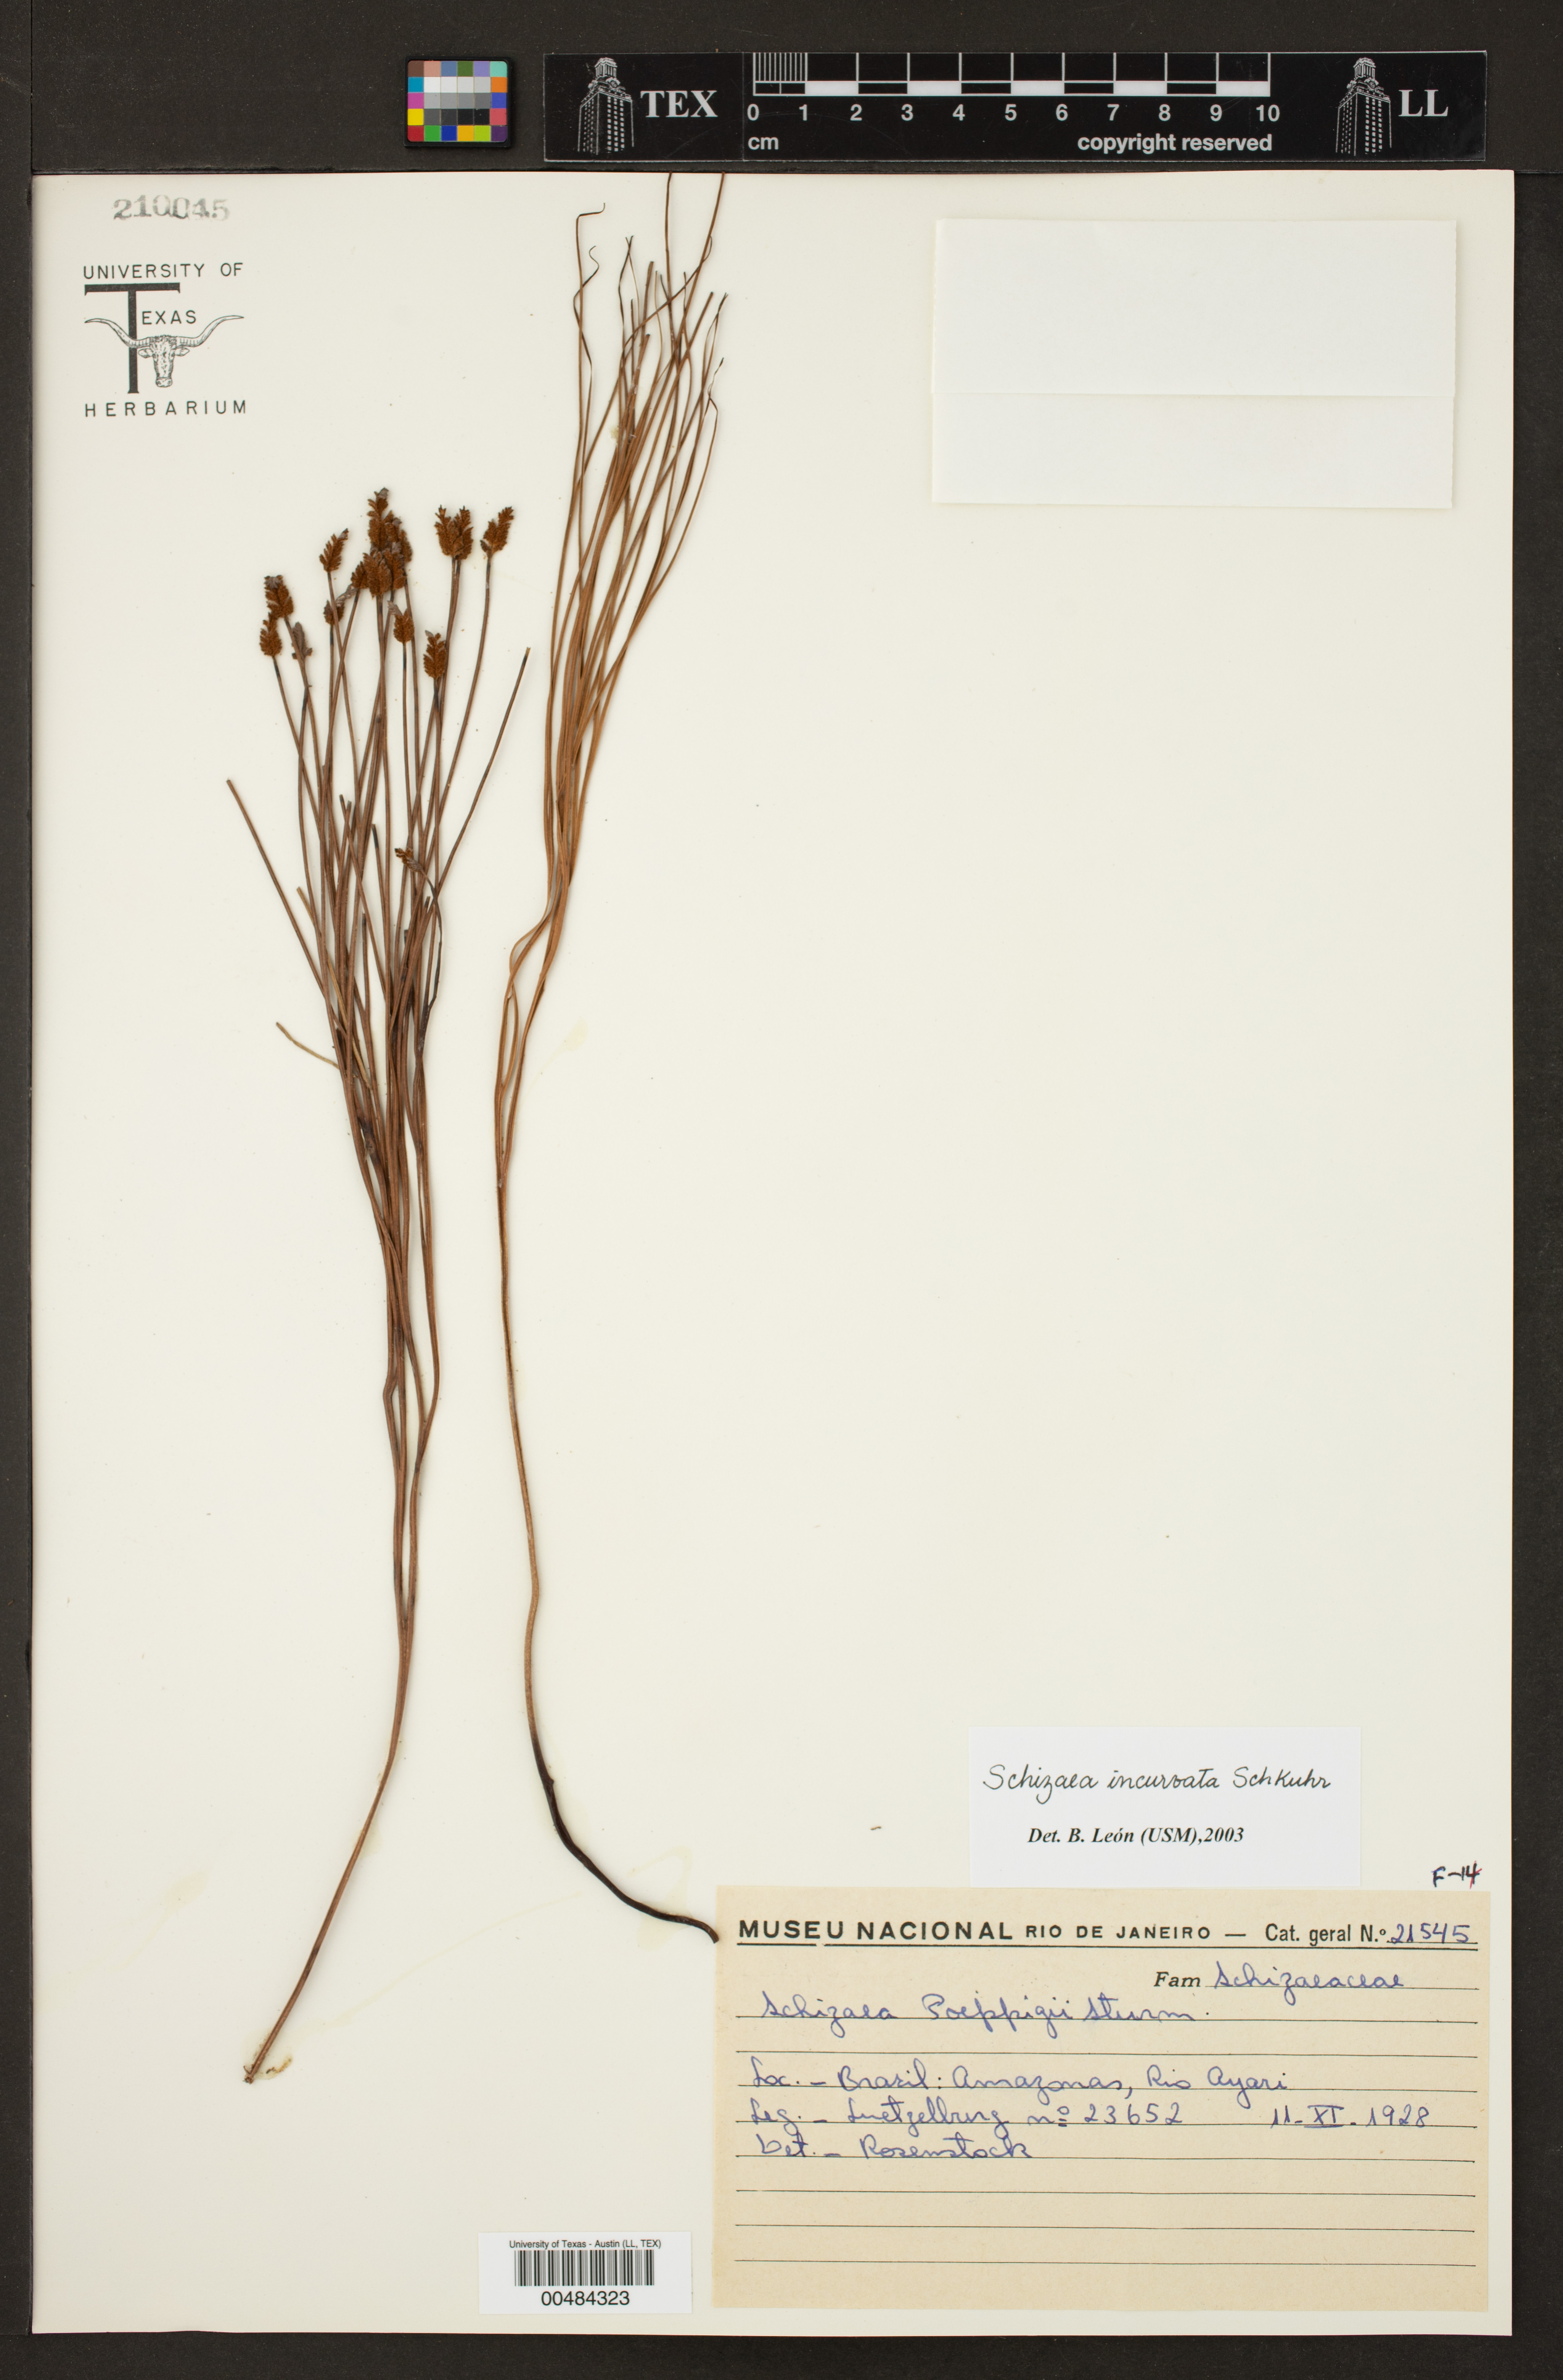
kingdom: Plantae
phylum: Tracheophyta
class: Polypodiopsida
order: Schizaeales
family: Schizaeaceae
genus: Schizaea
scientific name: Schizaea incurvata
